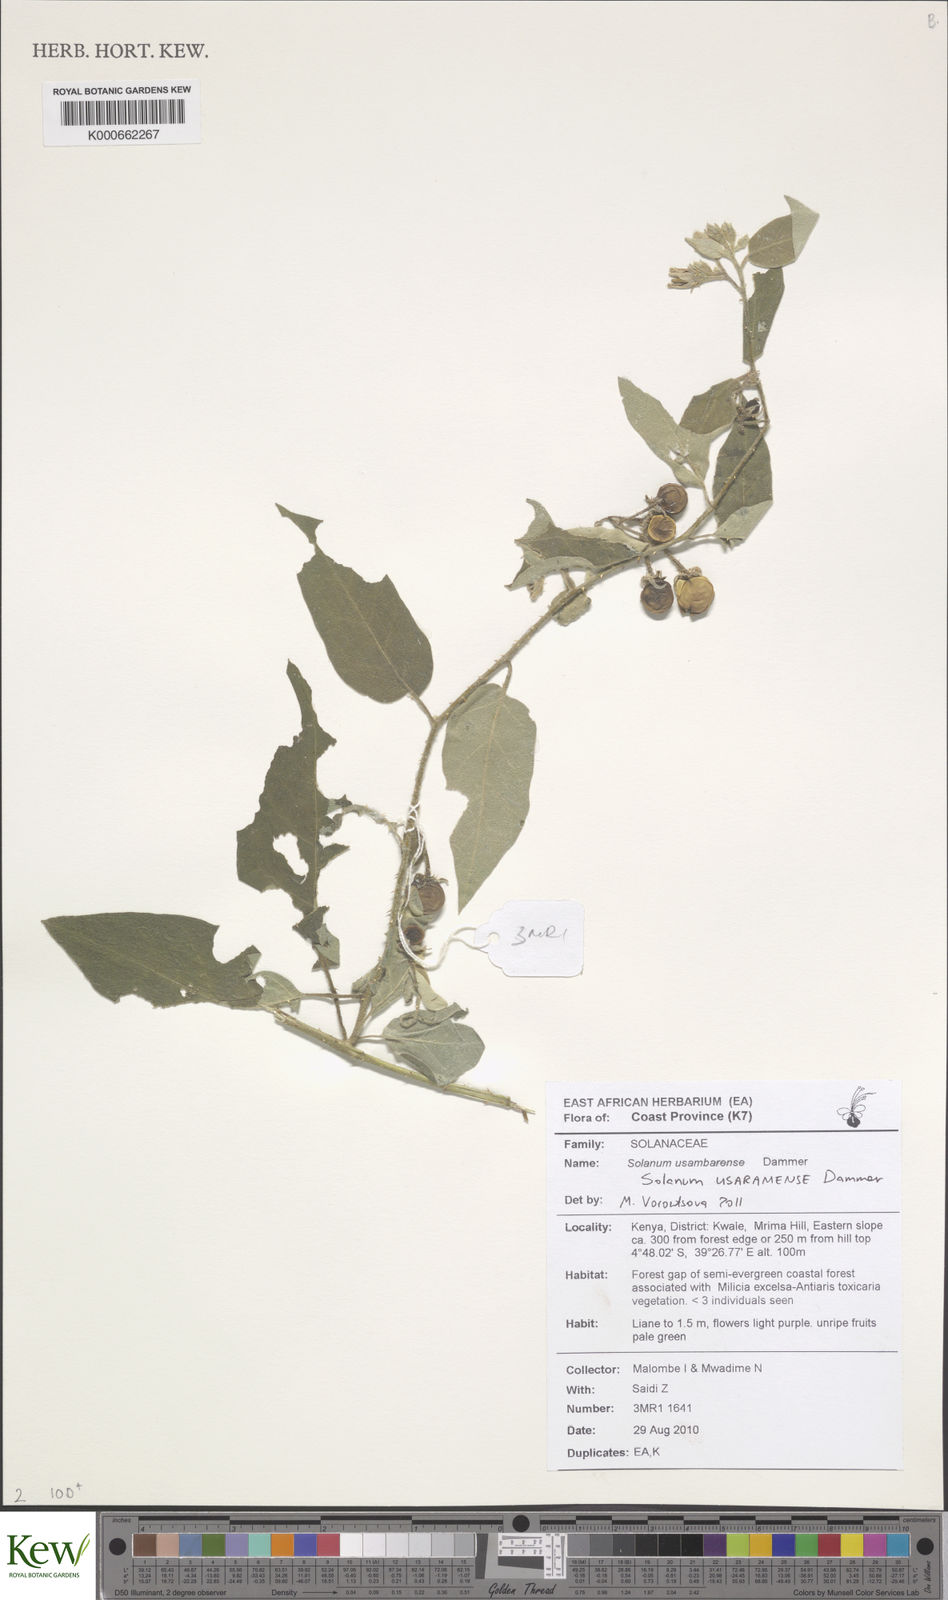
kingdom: Plantae
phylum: Tracheophyta
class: Magnoliopsida
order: Solanales
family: Solanaceae
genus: Solanum
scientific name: Solanum usaramense
